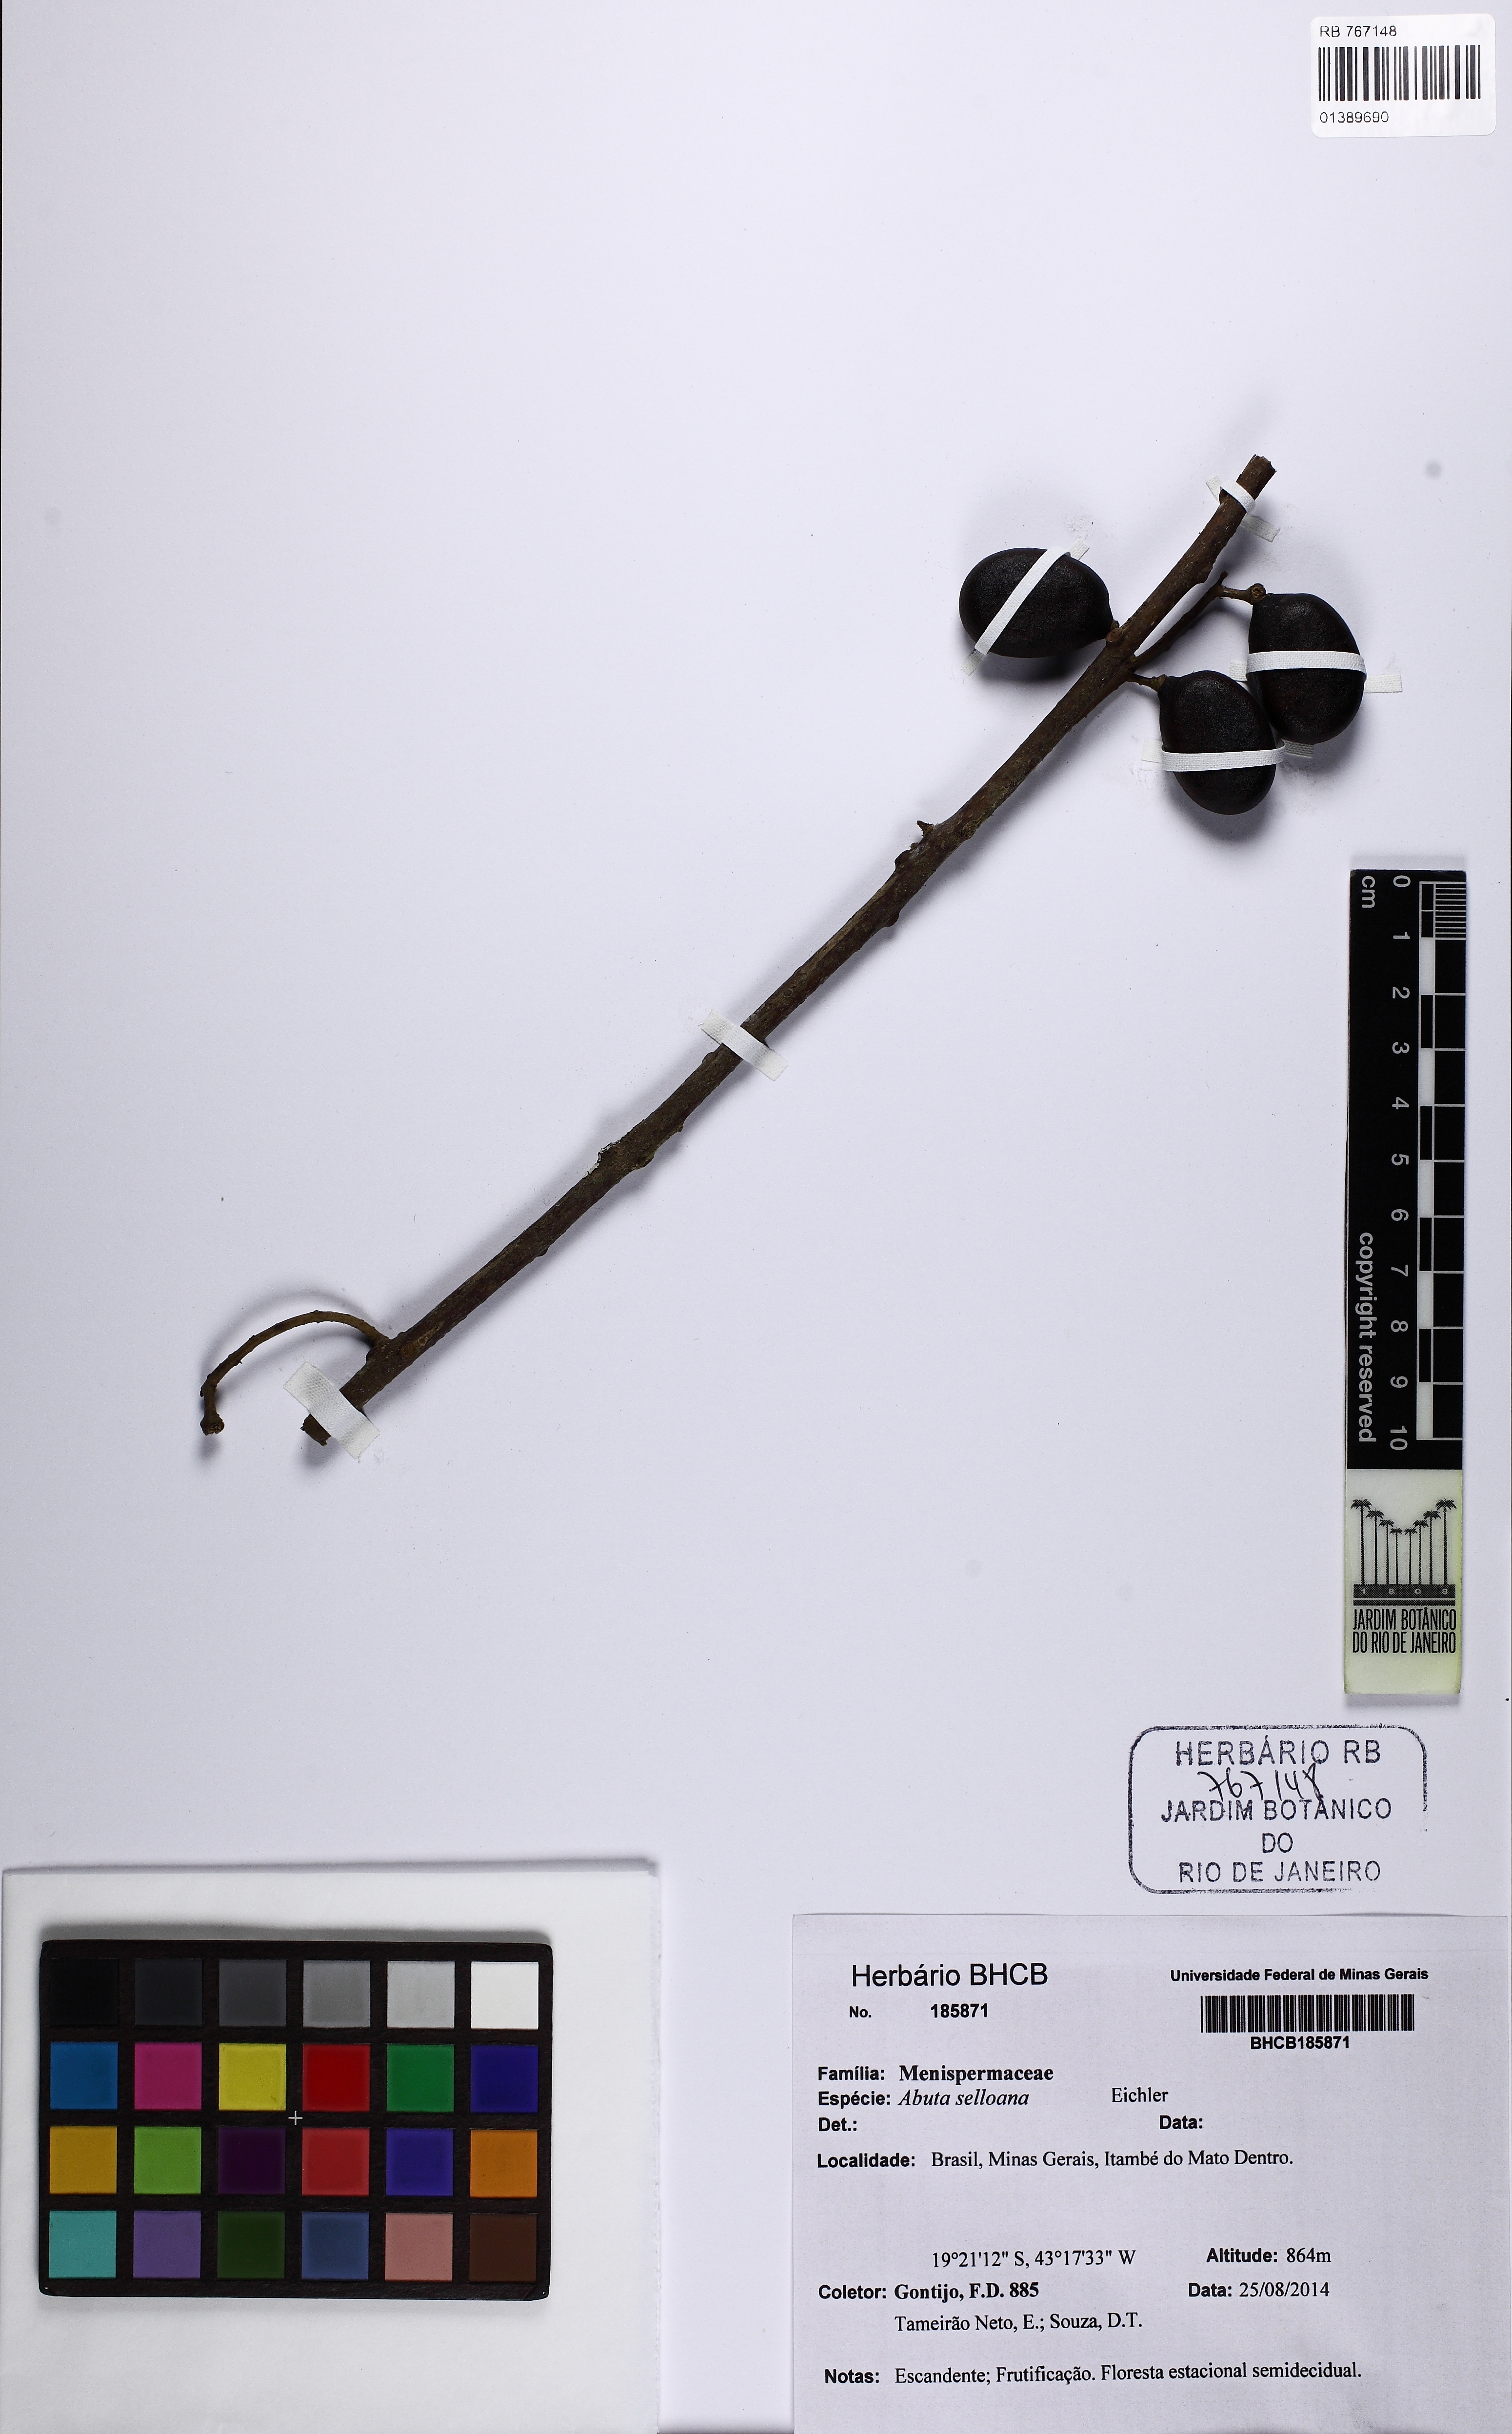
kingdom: Plantae
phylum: Tracheophyta
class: Magnoliopsida
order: Ranunculales
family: Menispermaceae
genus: Abuta
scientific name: Abuta selloana
